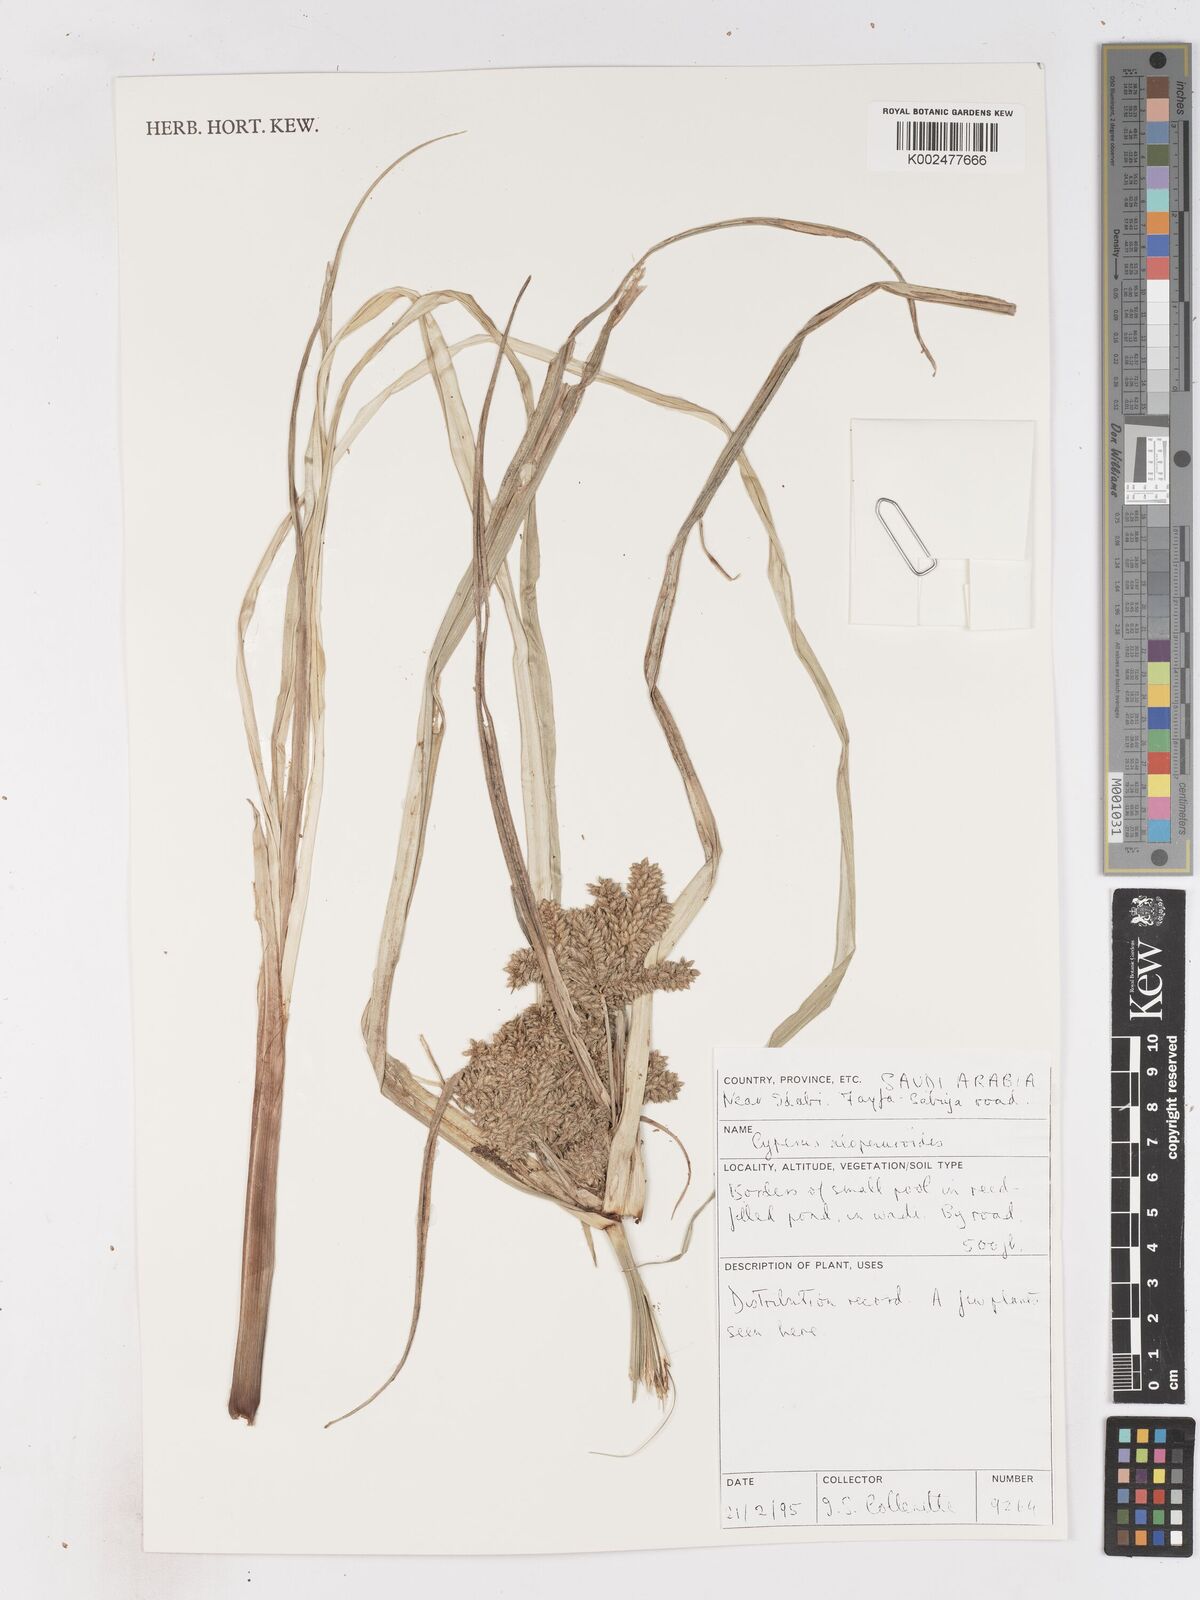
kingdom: Plantae
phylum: Tracheophyta
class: Liliopsida
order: Poales
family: Cyperaceae
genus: Cyperus
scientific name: Cyperus alopecuroides
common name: Foxtail flatsedge
